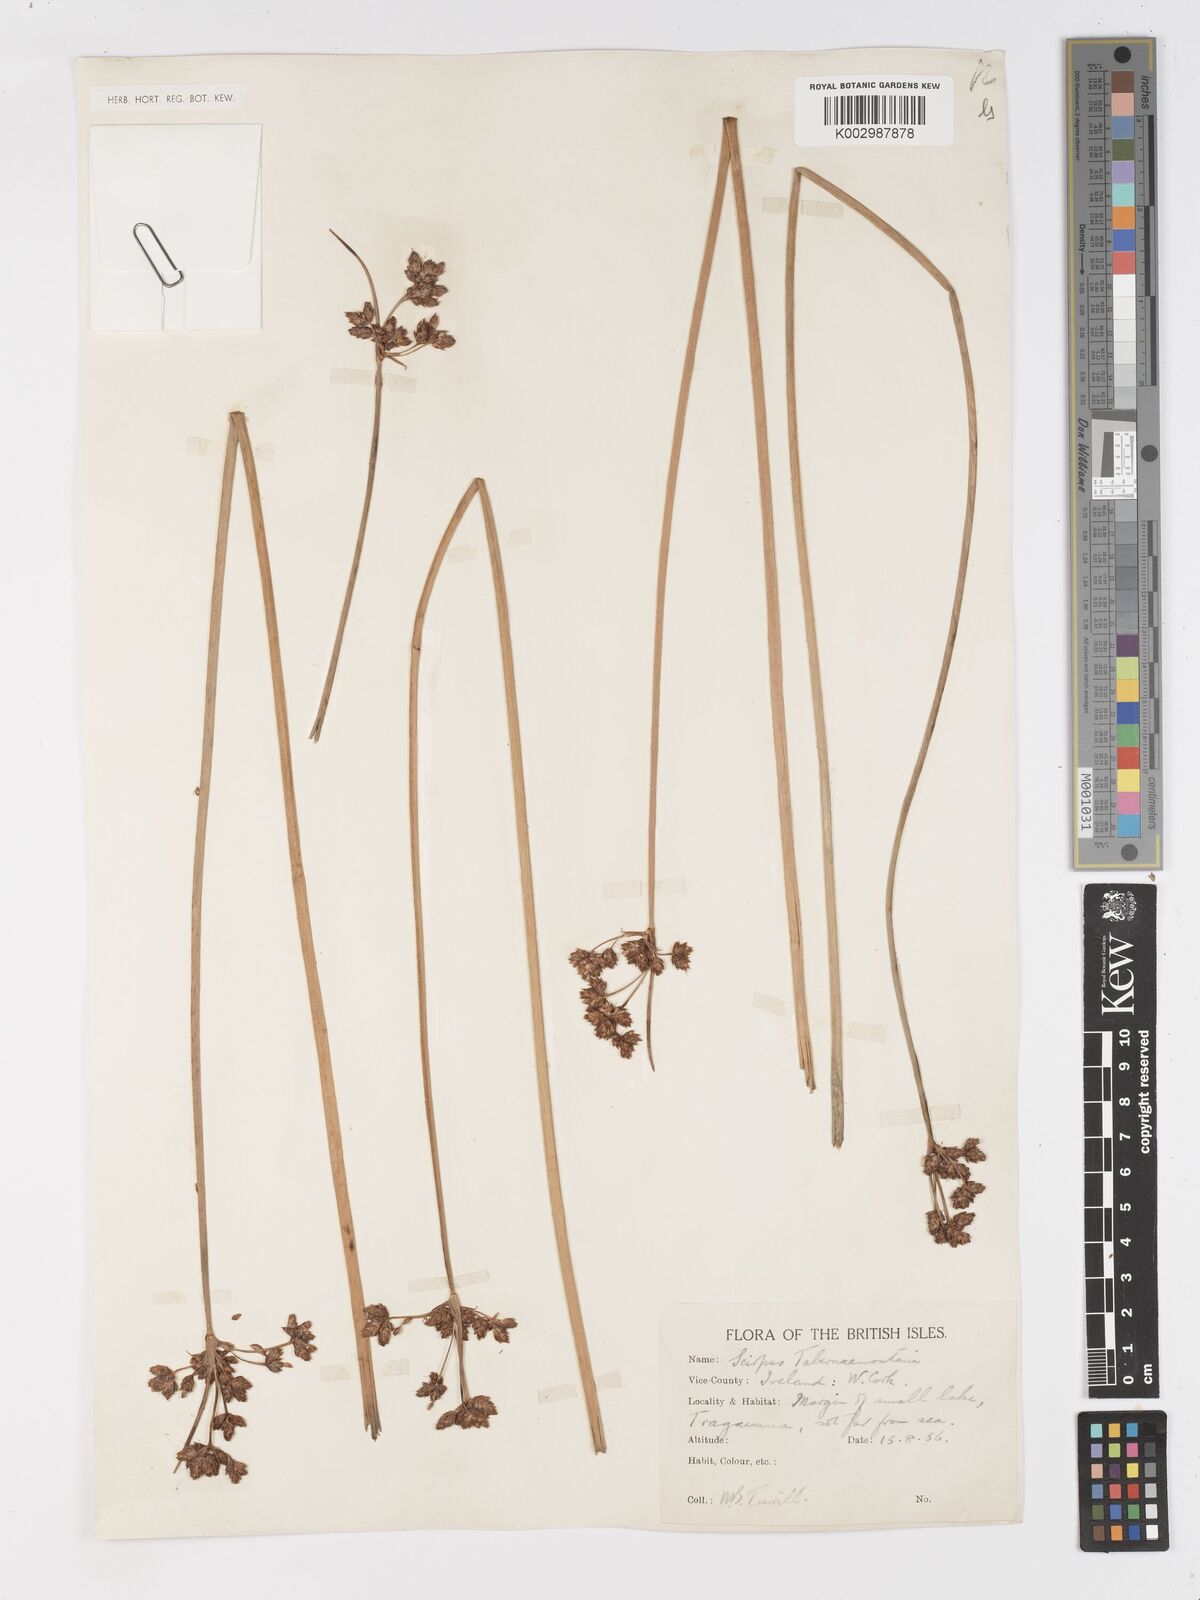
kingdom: Plantae
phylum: Tracheophyta
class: Liliopsida
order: Poales
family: Cyperaceae
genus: Schoenoplectus
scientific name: Schoenoplectus tabernaemontani
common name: Grey club-rush
